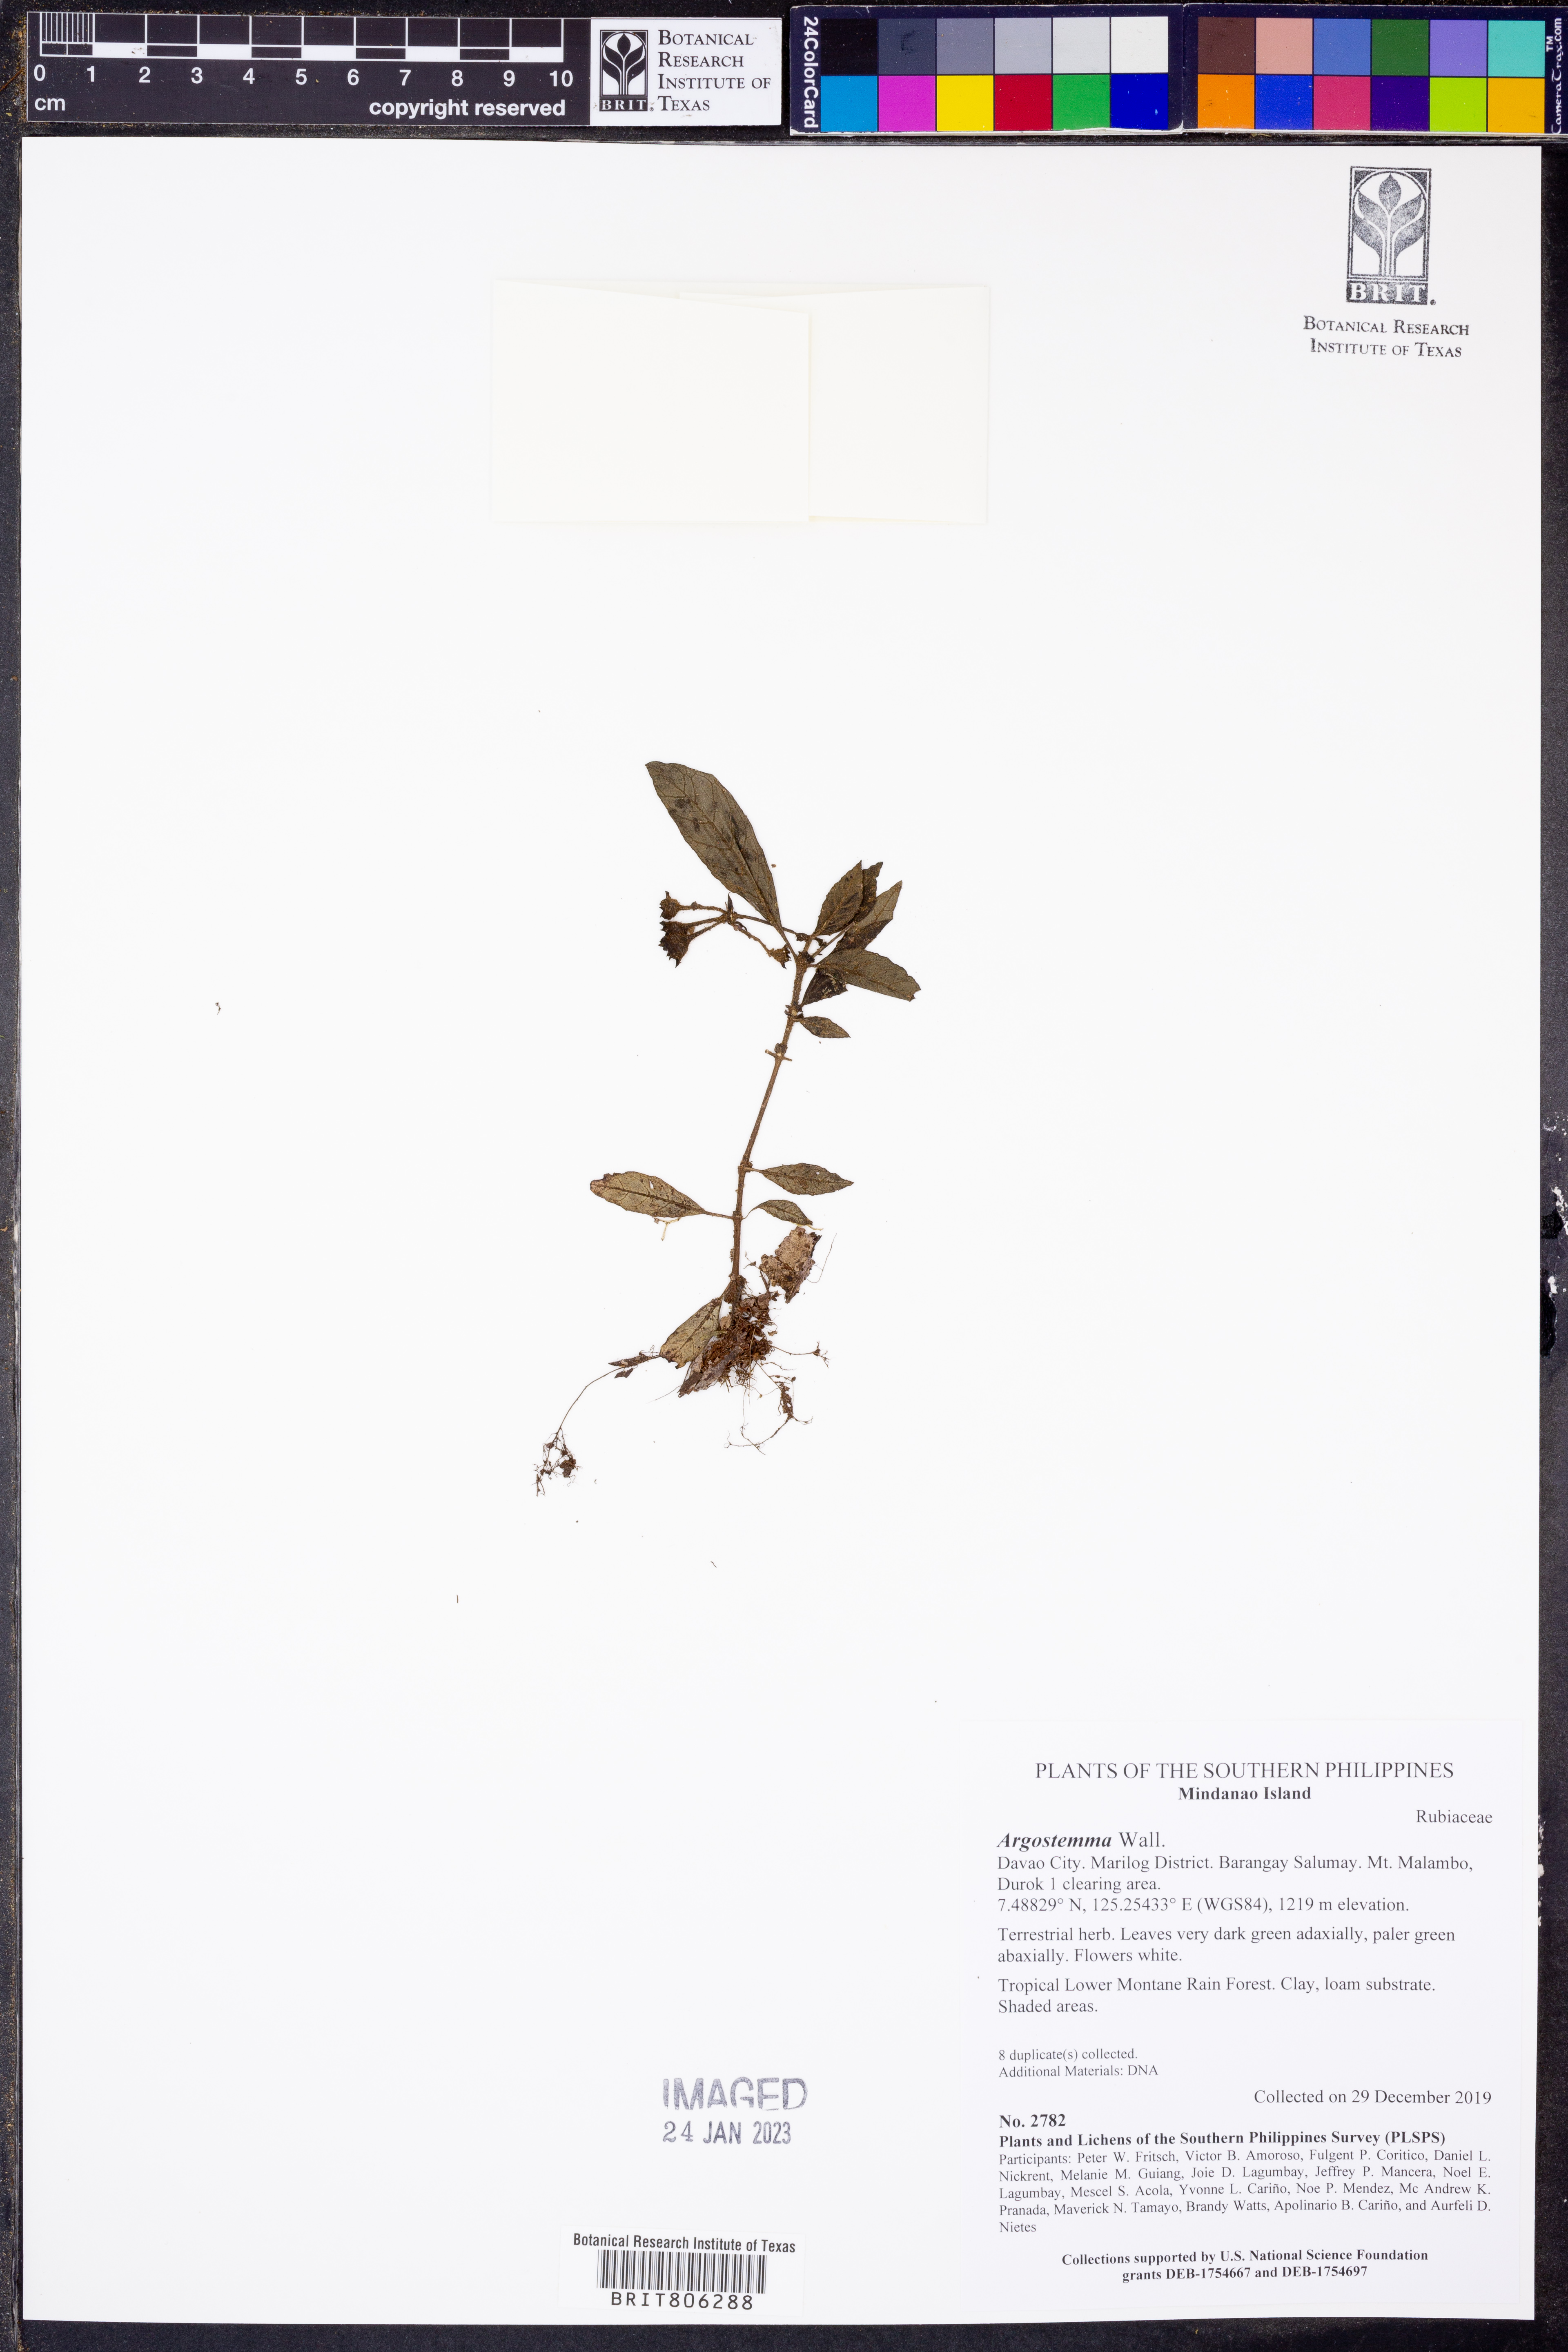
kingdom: Plantae
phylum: Tracheophyta
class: Magnoliopsida
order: Gentianales
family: Rubiaceae
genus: Argostemma
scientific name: Argostemma
